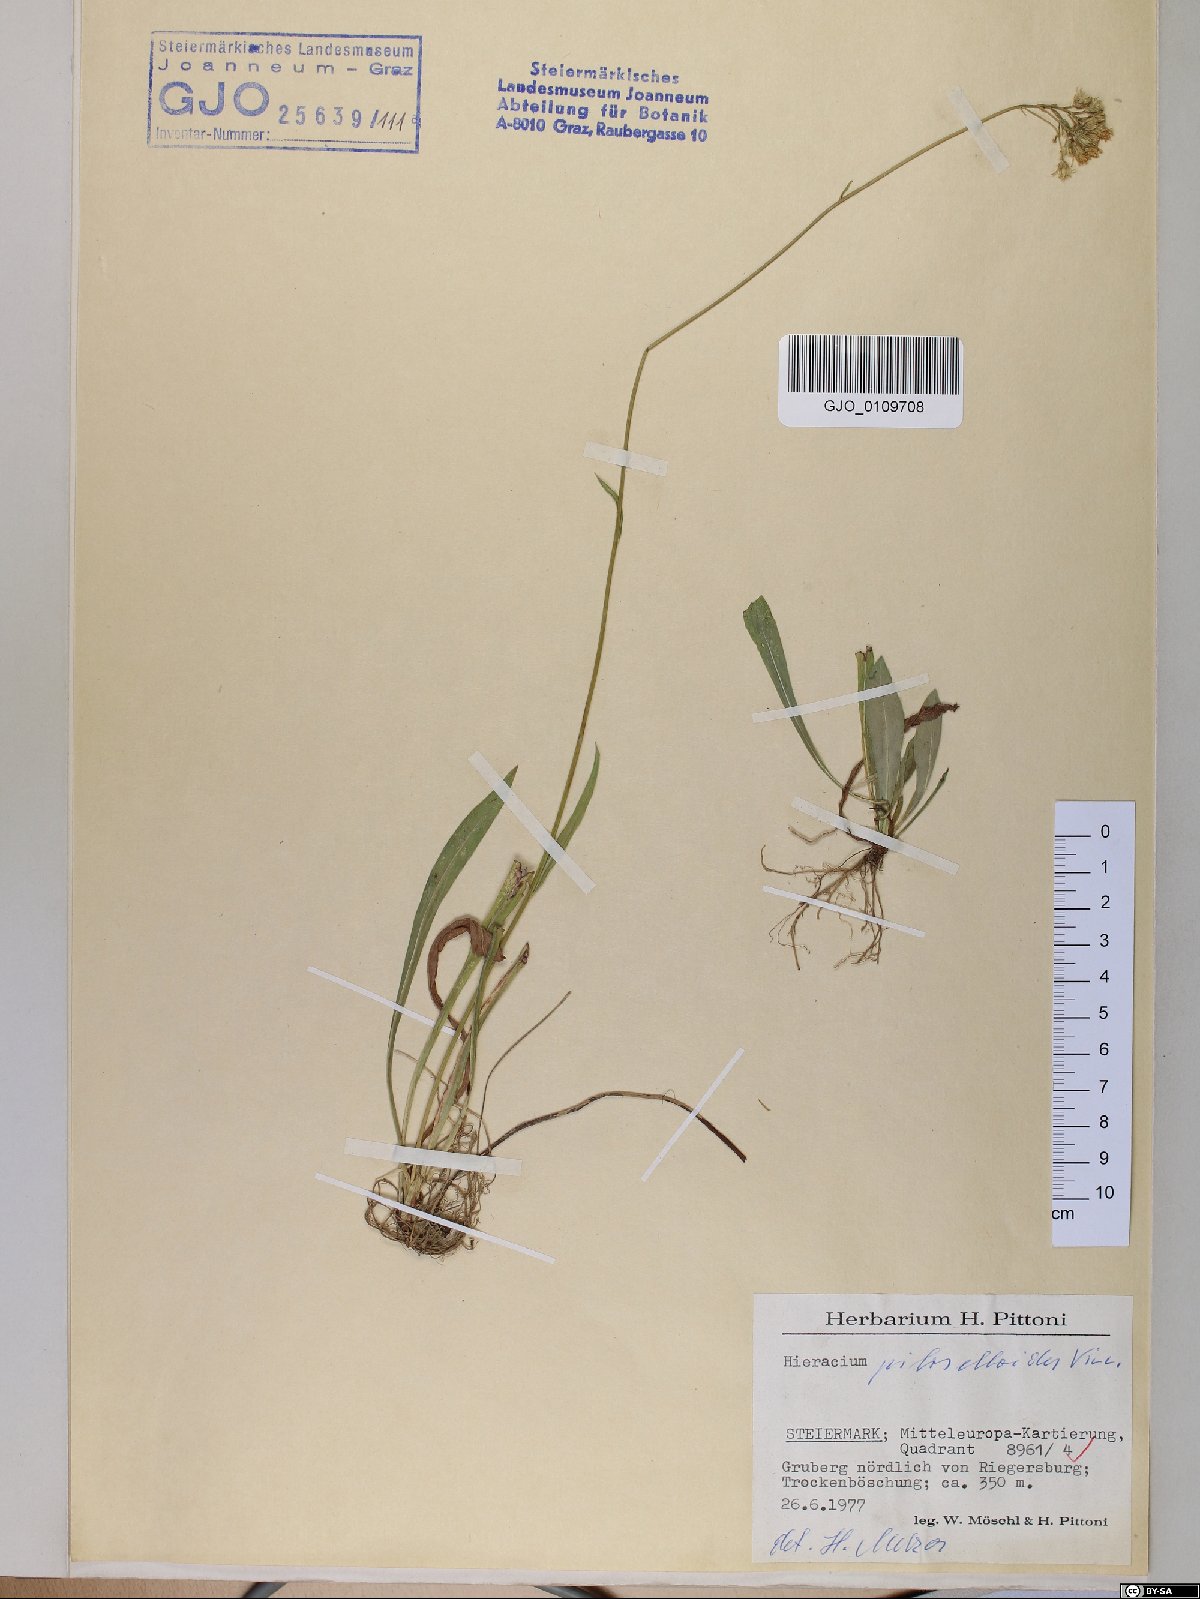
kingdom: Plantae
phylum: Tracheophyta
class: Magnoliopsida
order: Asterales
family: Asteraceae
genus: Pilosella
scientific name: Pilosella piloselloides
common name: Glaucous king-devil
